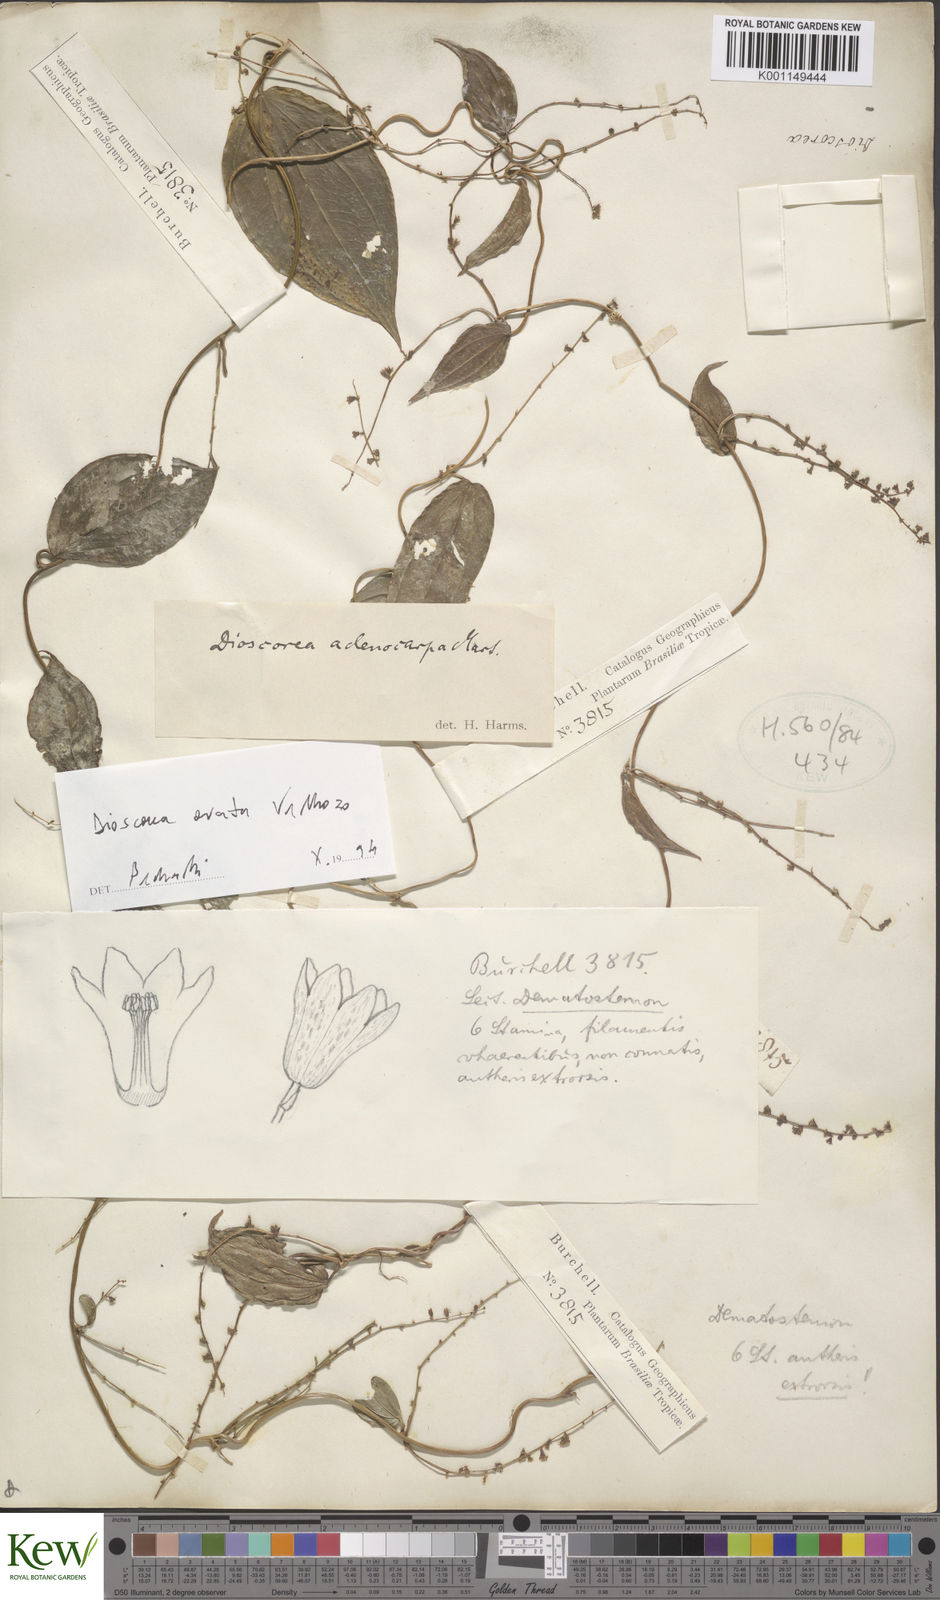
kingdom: Plantae
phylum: Tracheophyta
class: Liliopsida
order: Dioscoreales
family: Dioscoreaceae
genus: Dioscorea
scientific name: Dioscorea campestris
